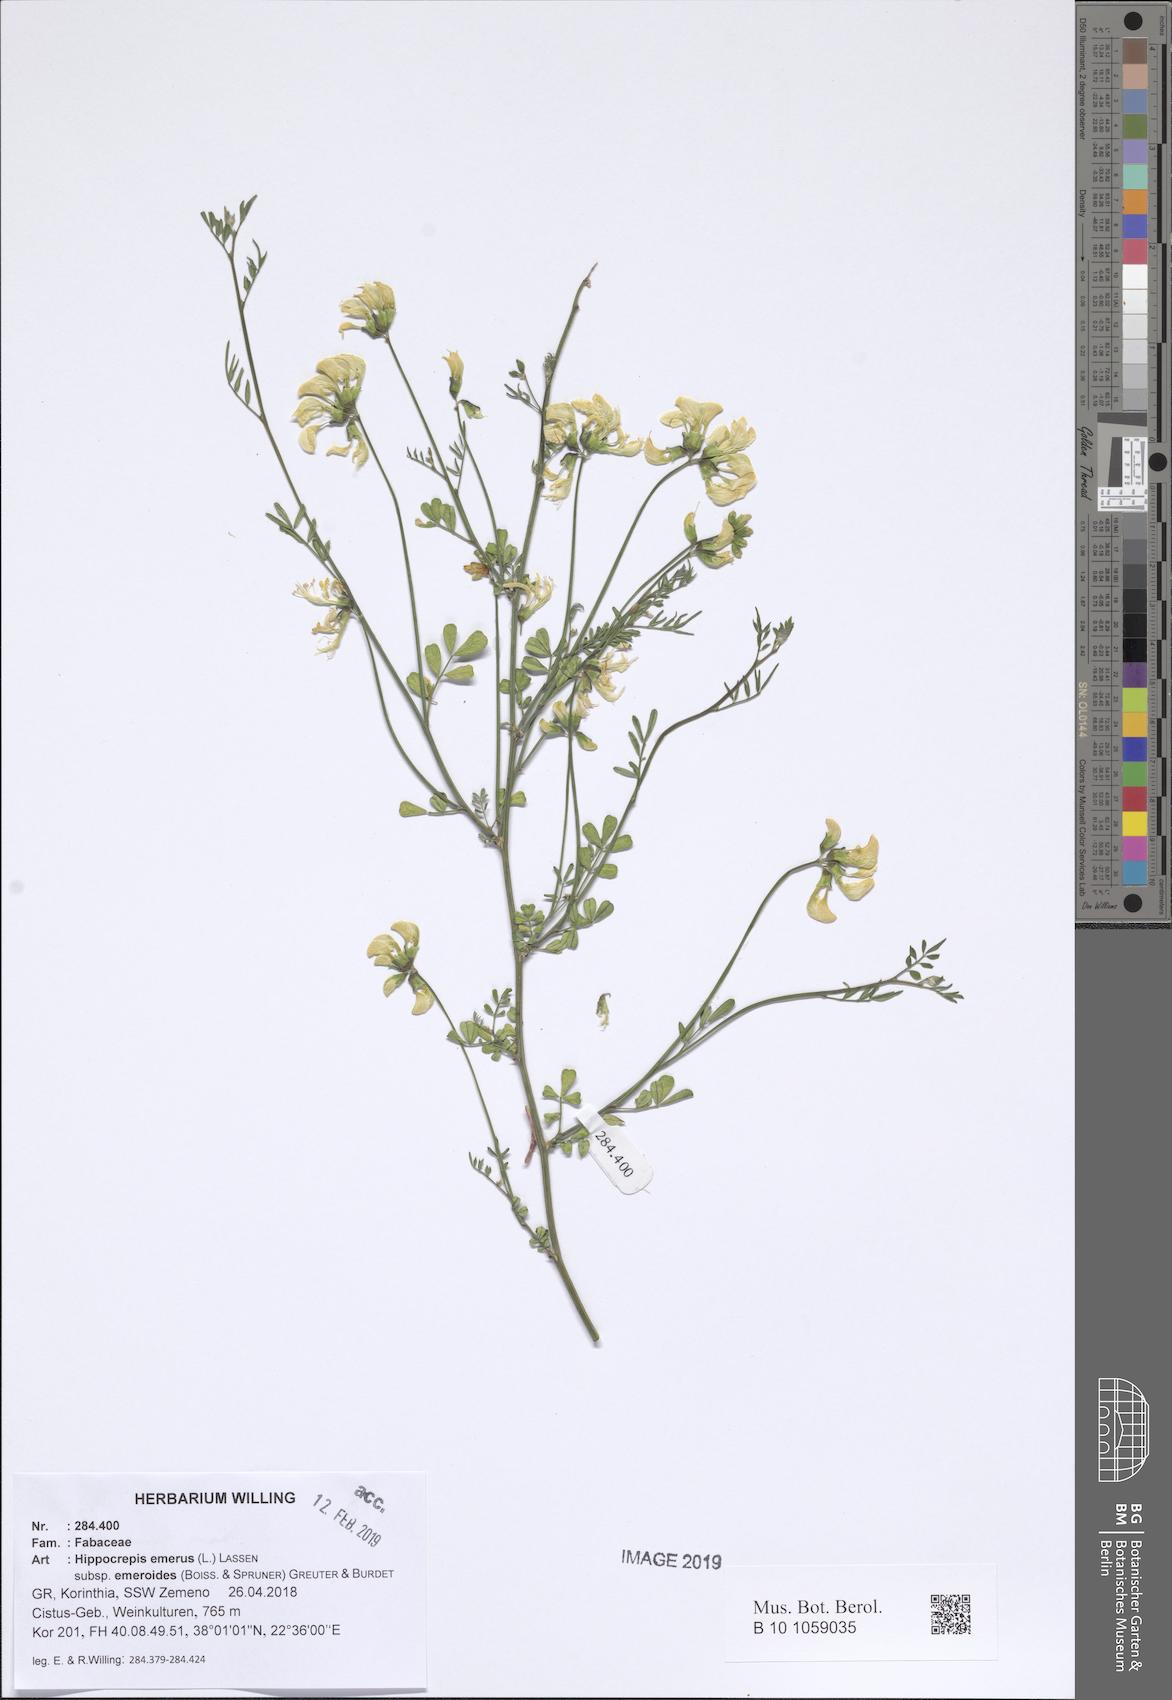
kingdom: Plantae
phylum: Tracheophyta
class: Magnoliopsida
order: Fabales
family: Fabaceae
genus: Hippocrepis
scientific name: Hippocrepis emerus
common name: Scorpion senna
